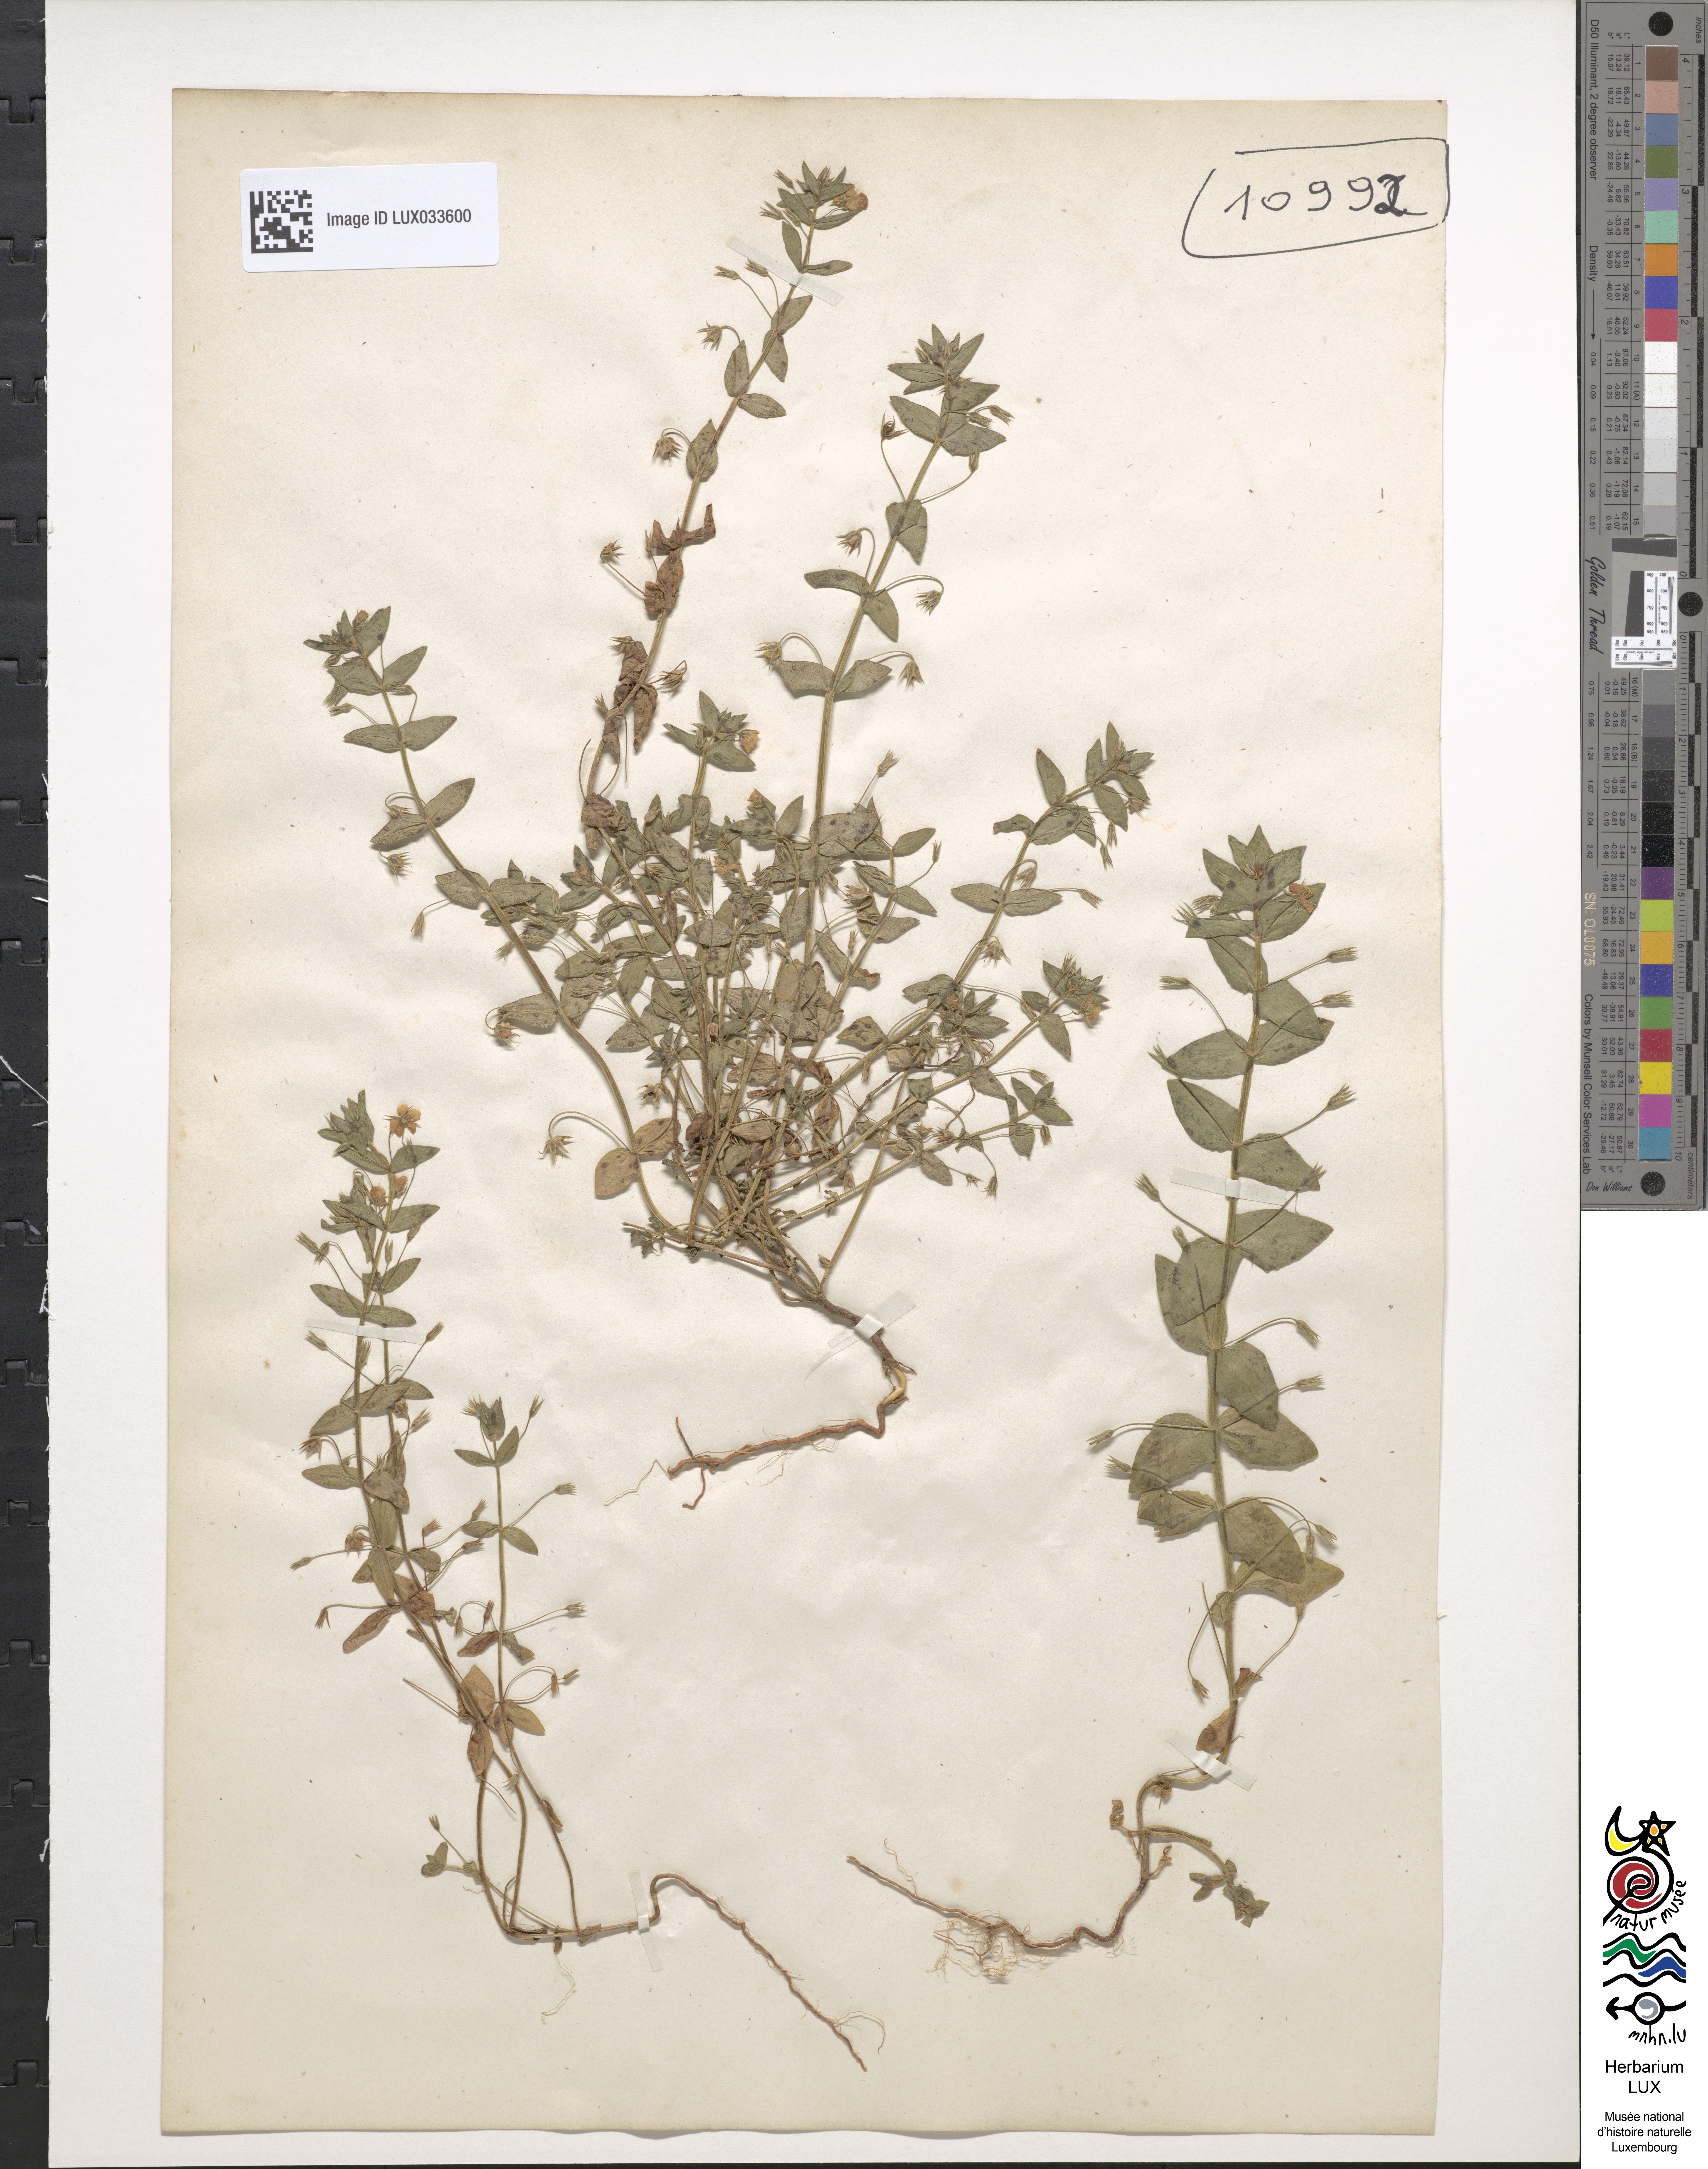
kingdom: Plantae
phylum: Tracheophyta
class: Magnoliopsida
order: Ericales
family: Primulaceae
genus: Lysimachia
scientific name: Lysimachia Anagallis spec
